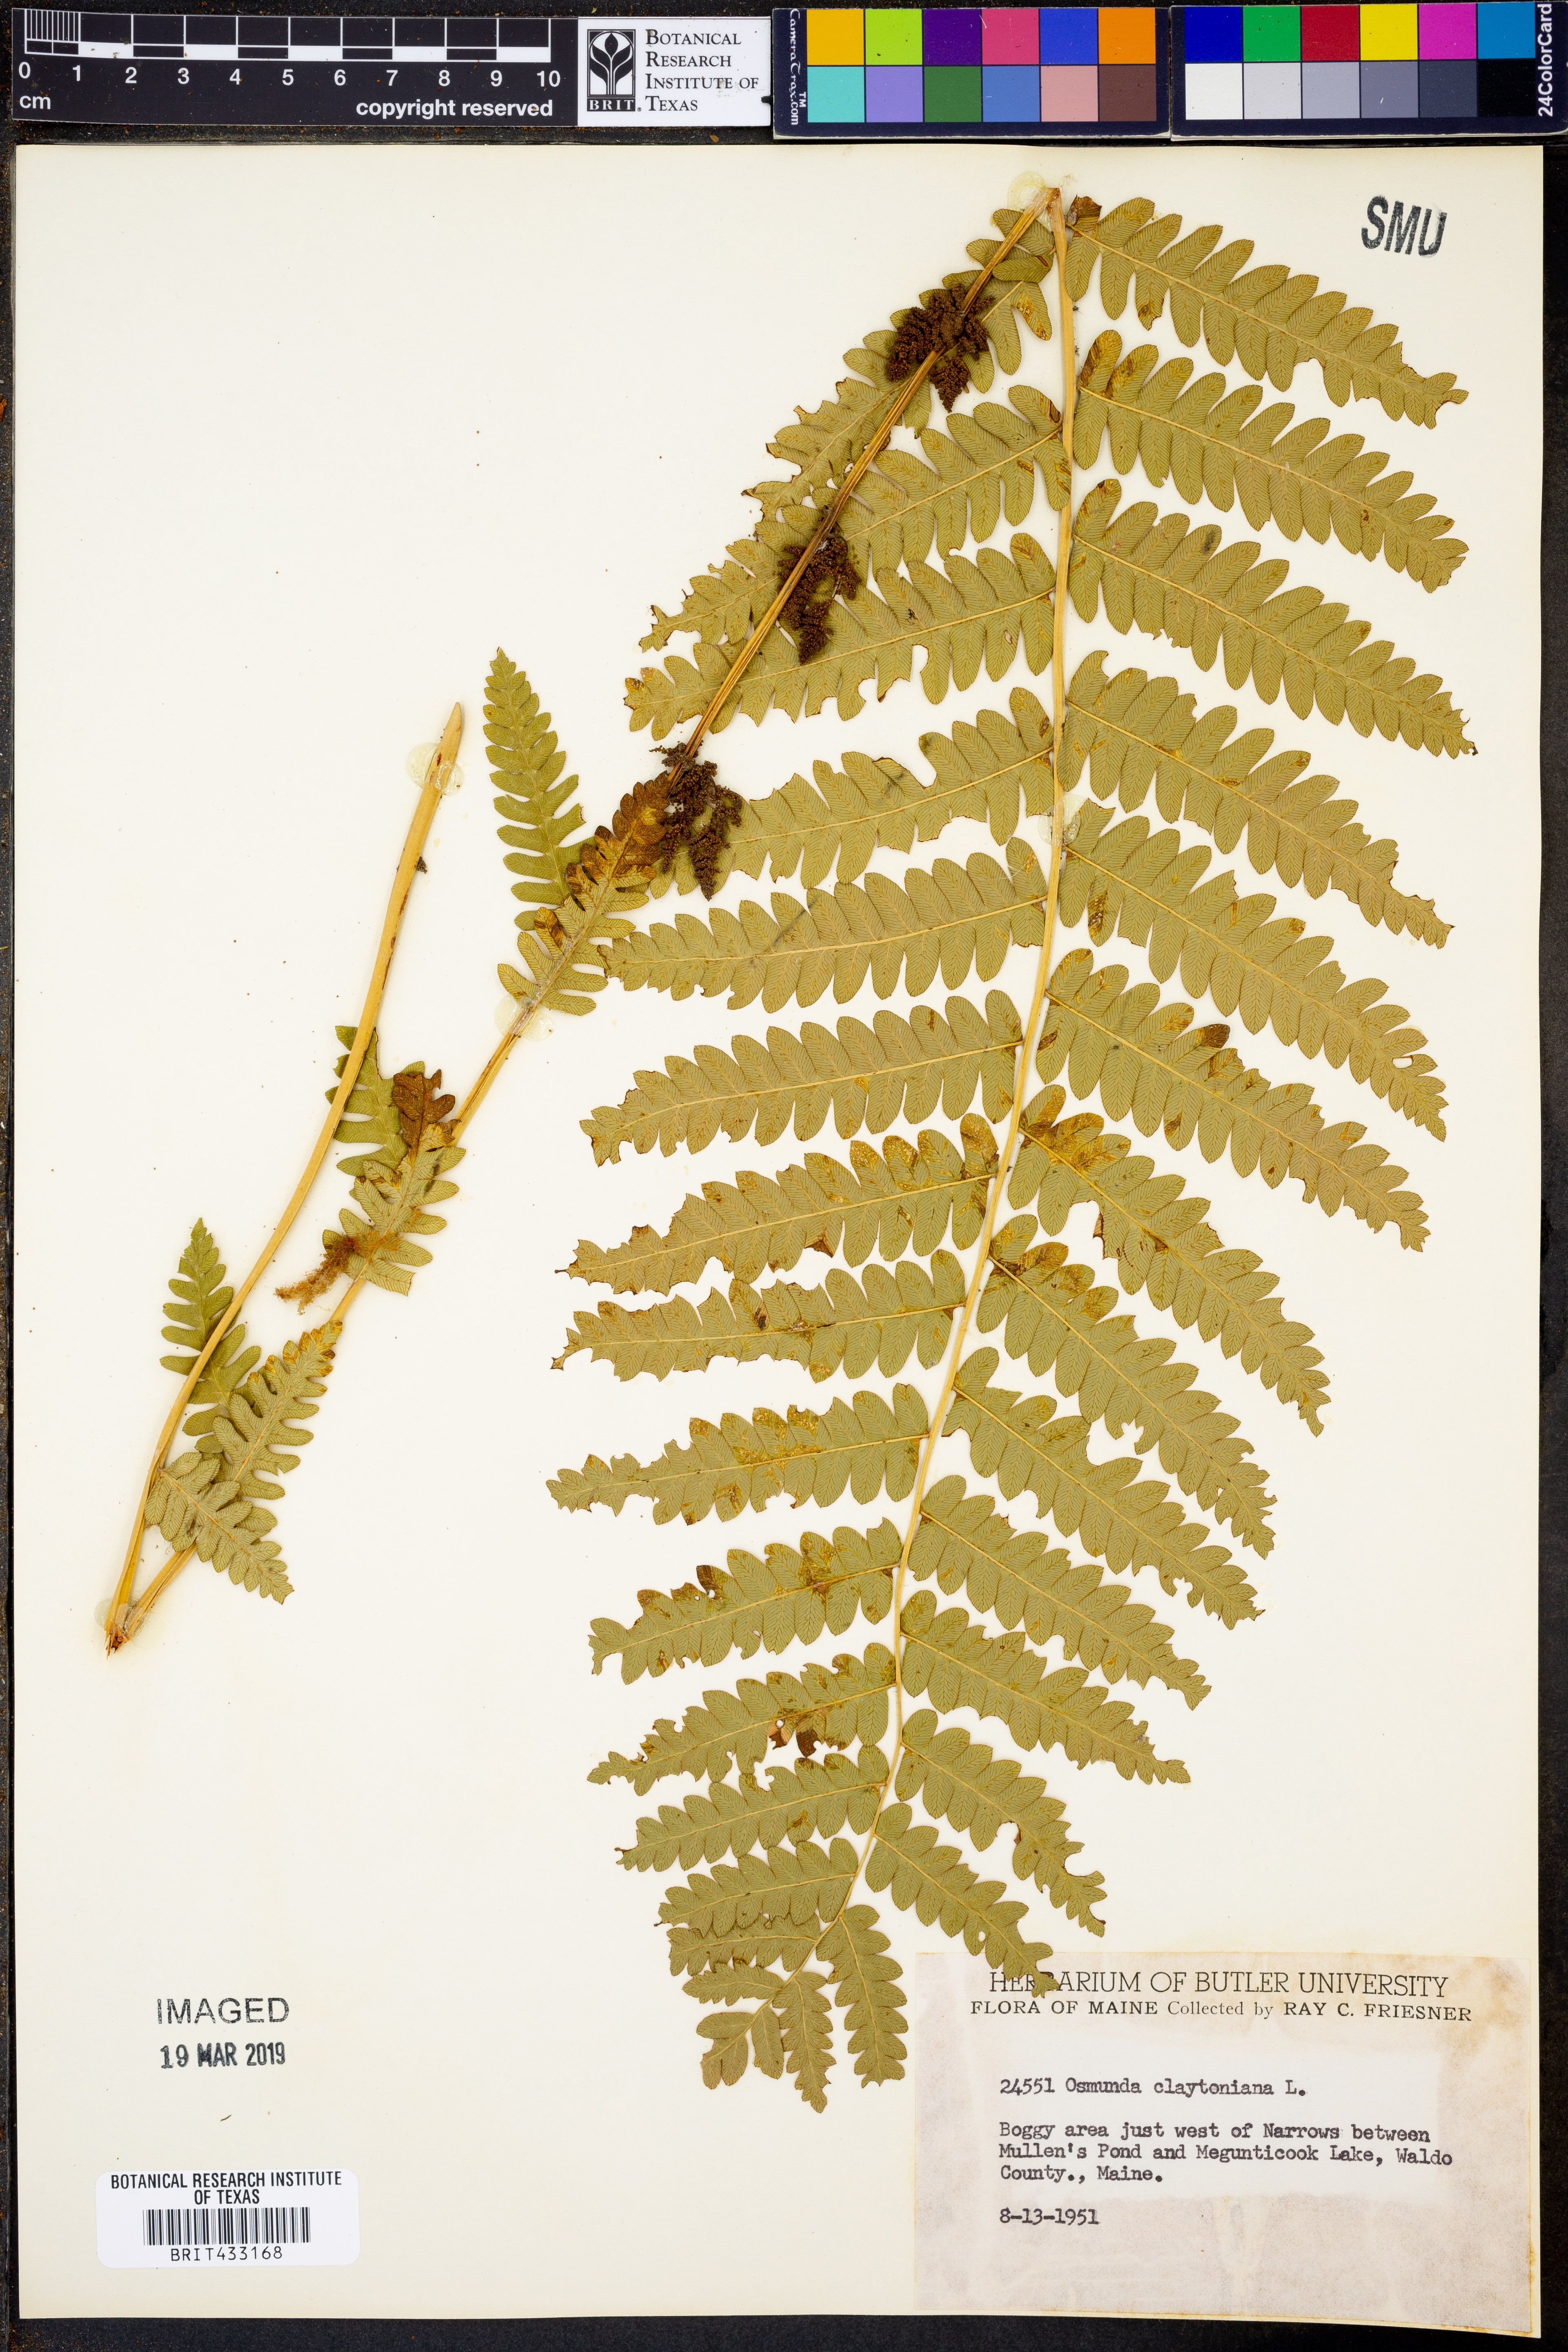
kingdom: Plantae
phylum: Tracheophyta
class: Polypodiopsida
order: Osmundales
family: Osmundaceae
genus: Claytosmunda
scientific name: Claytosmunda claytoniana
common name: Clayton's fern
